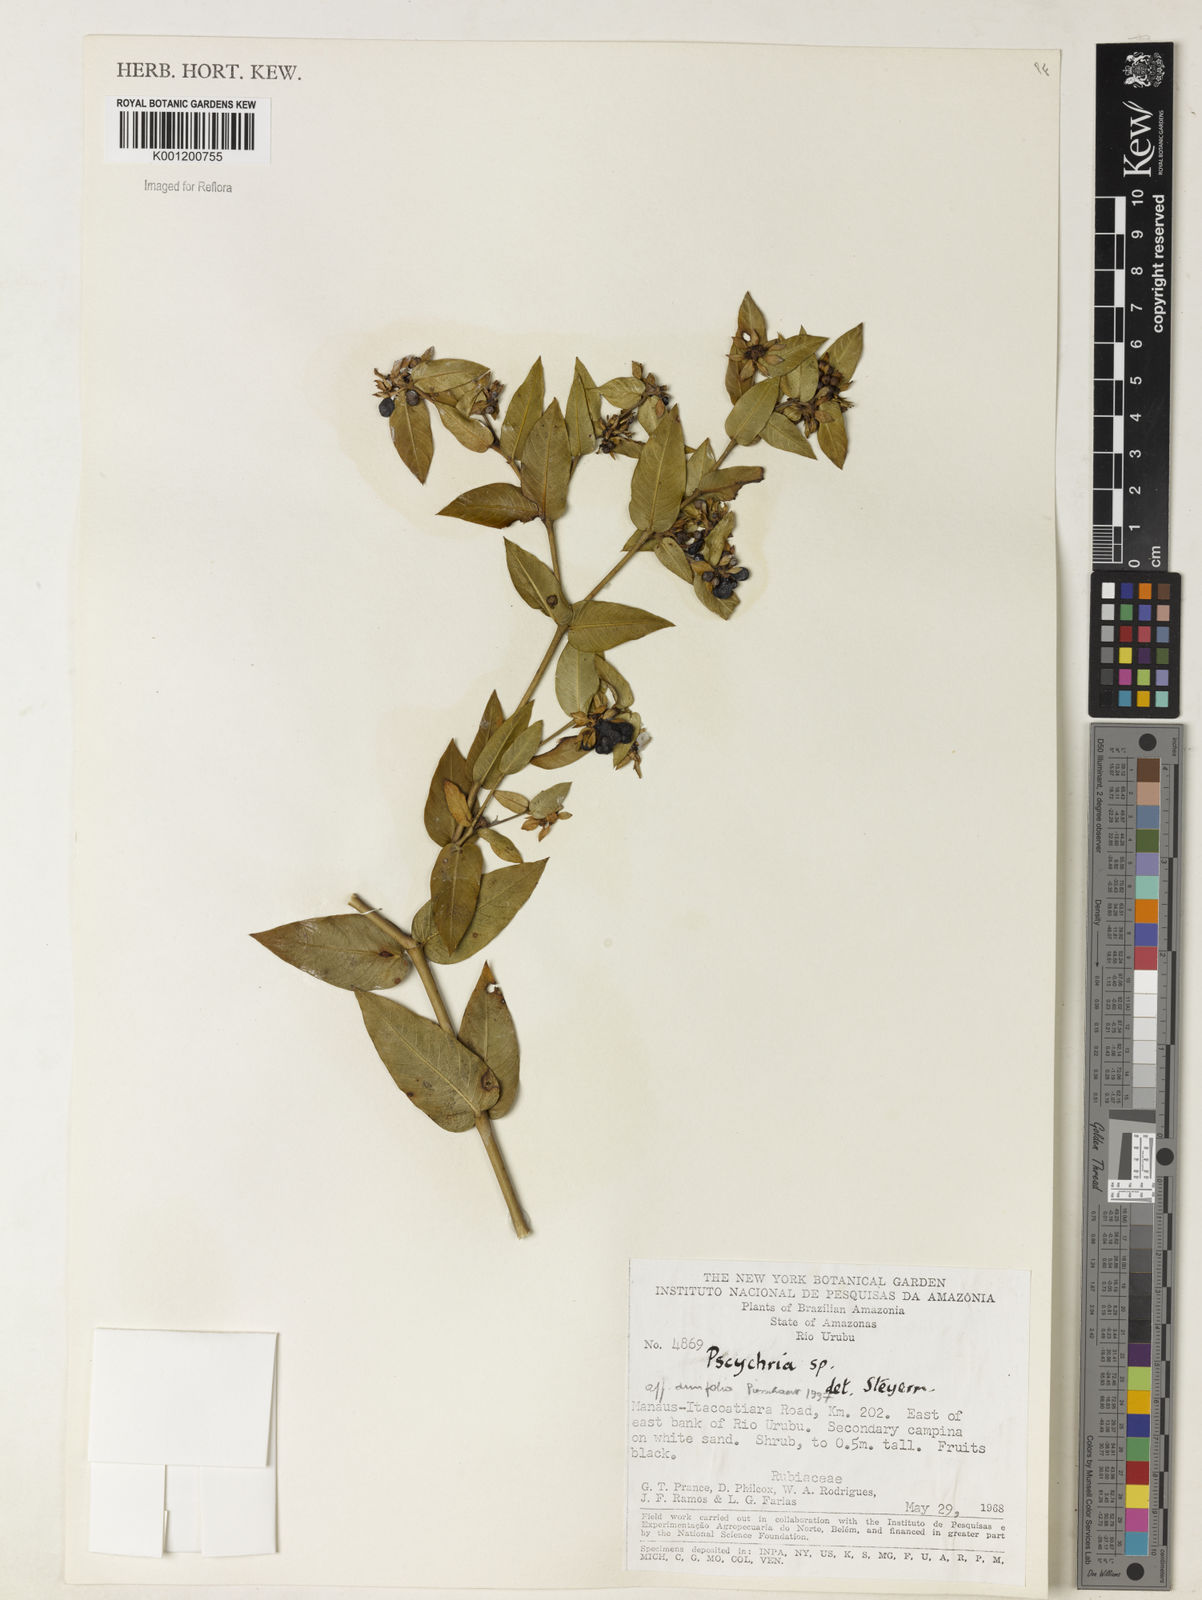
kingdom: Plantae
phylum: Tracheophyta
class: Magnoliopsida
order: Gentianales
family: Rubiaceae
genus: Psychotria
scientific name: Psychotria
